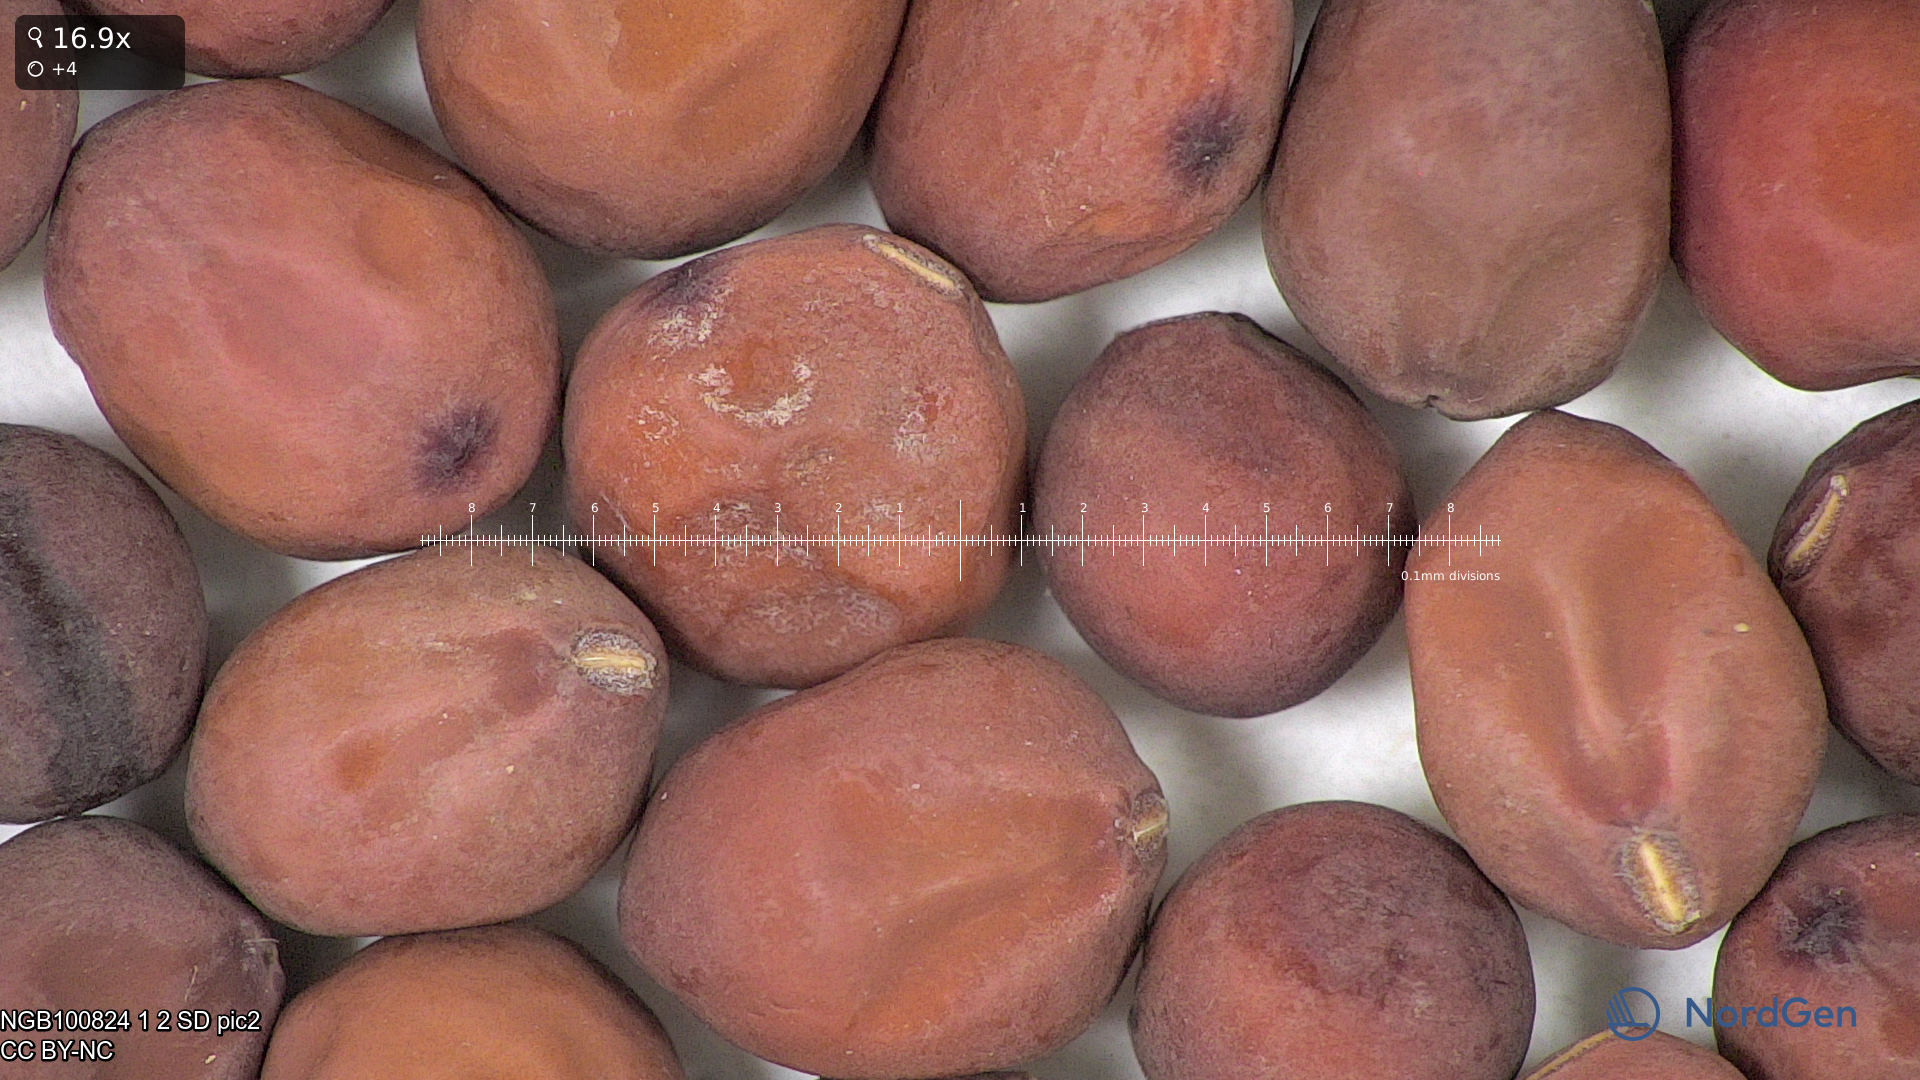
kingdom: Plantae
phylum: Tracheophyta
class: Magnoliopsida
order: Fabales
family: Fabaceae
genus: Lathyrus
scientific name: Lathyrus oleraceus
